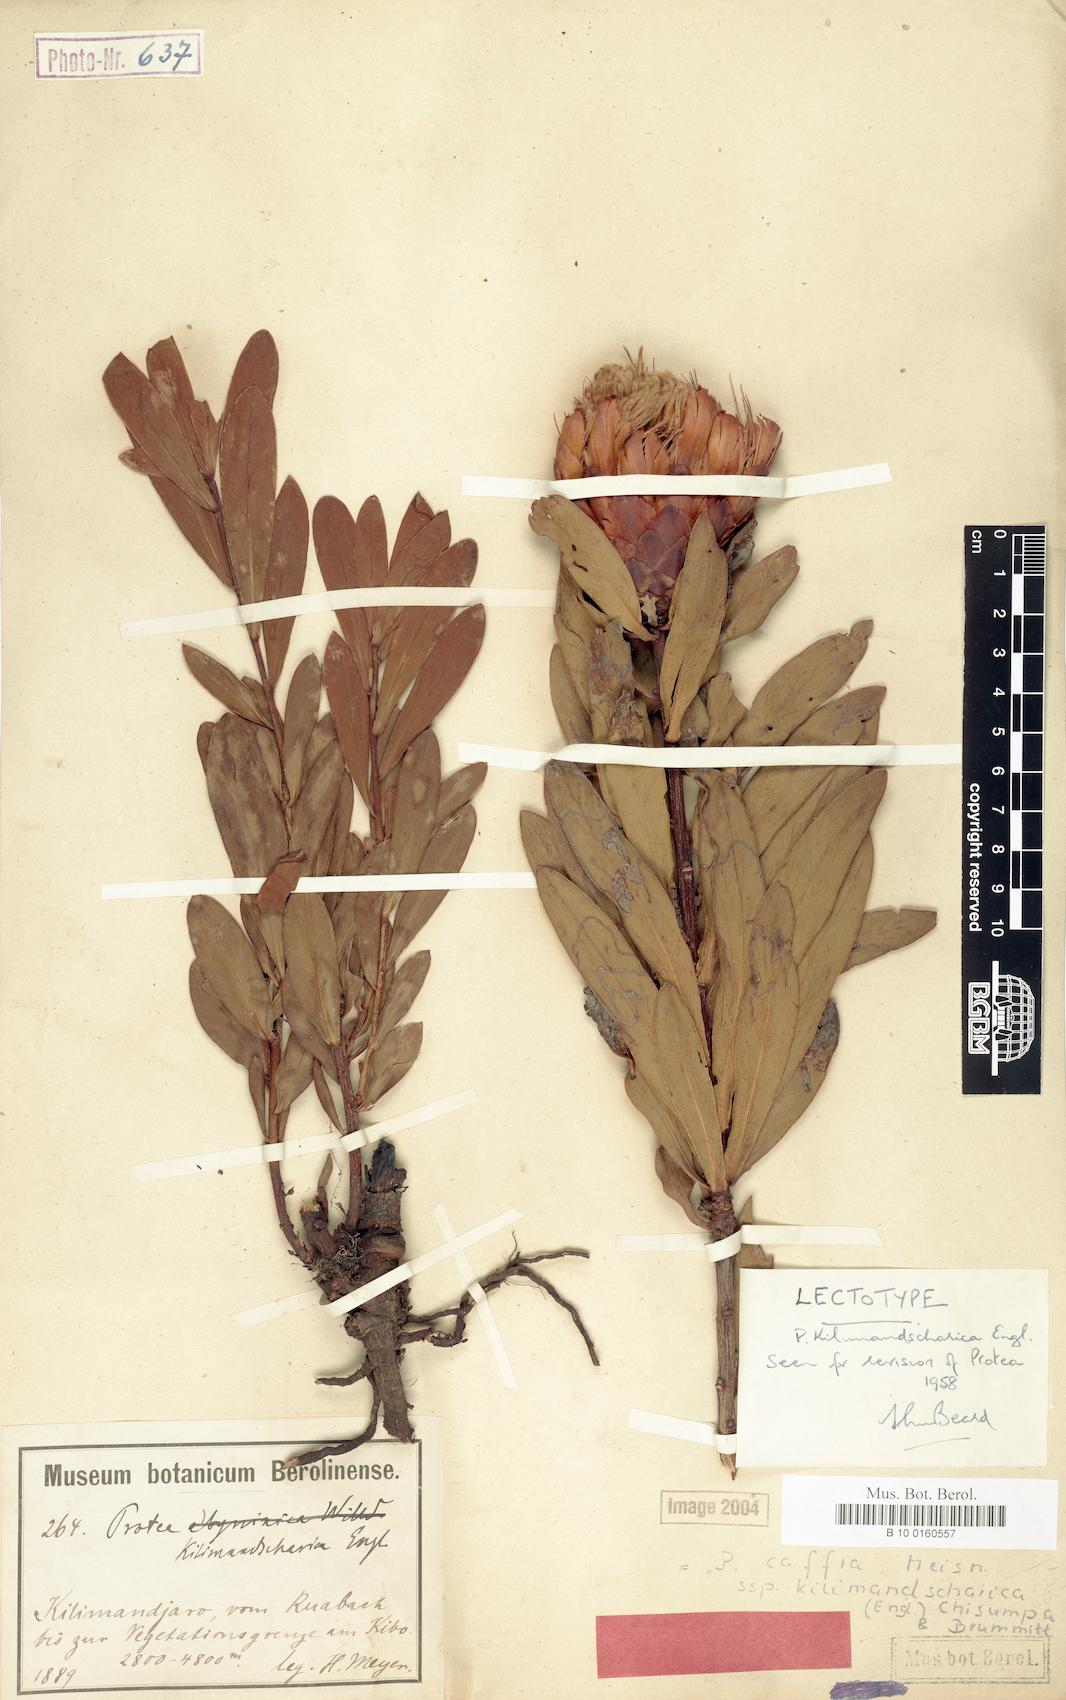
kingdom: Plantae
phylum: Tracheophyta
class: Magnoliopsida
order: Proteales
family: Proteaceae
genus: Protea
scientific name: Protea caffra
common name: Common sugarbush
